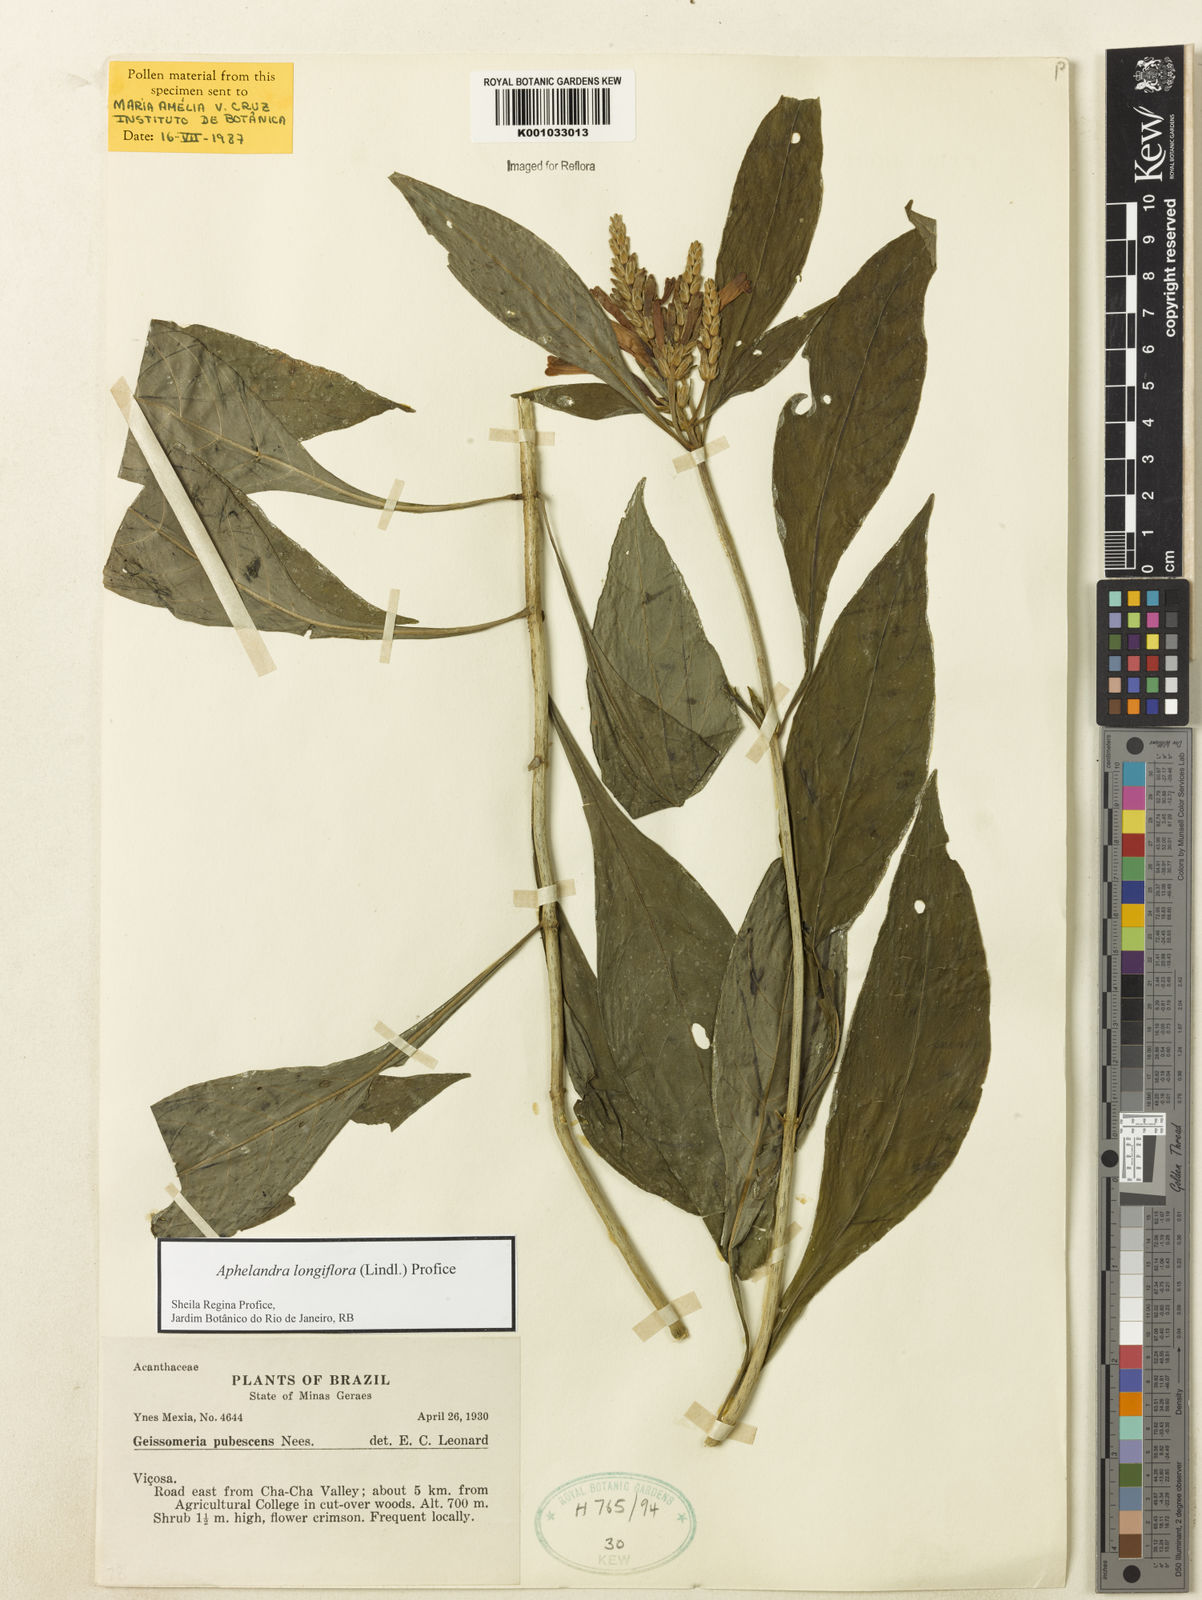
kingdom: Plantae
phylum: Tracheophyta
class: Magnoliopsida
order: Lamiales
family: Acanthaceae
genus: Aphelandra
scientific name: Aphelandra longiflora
